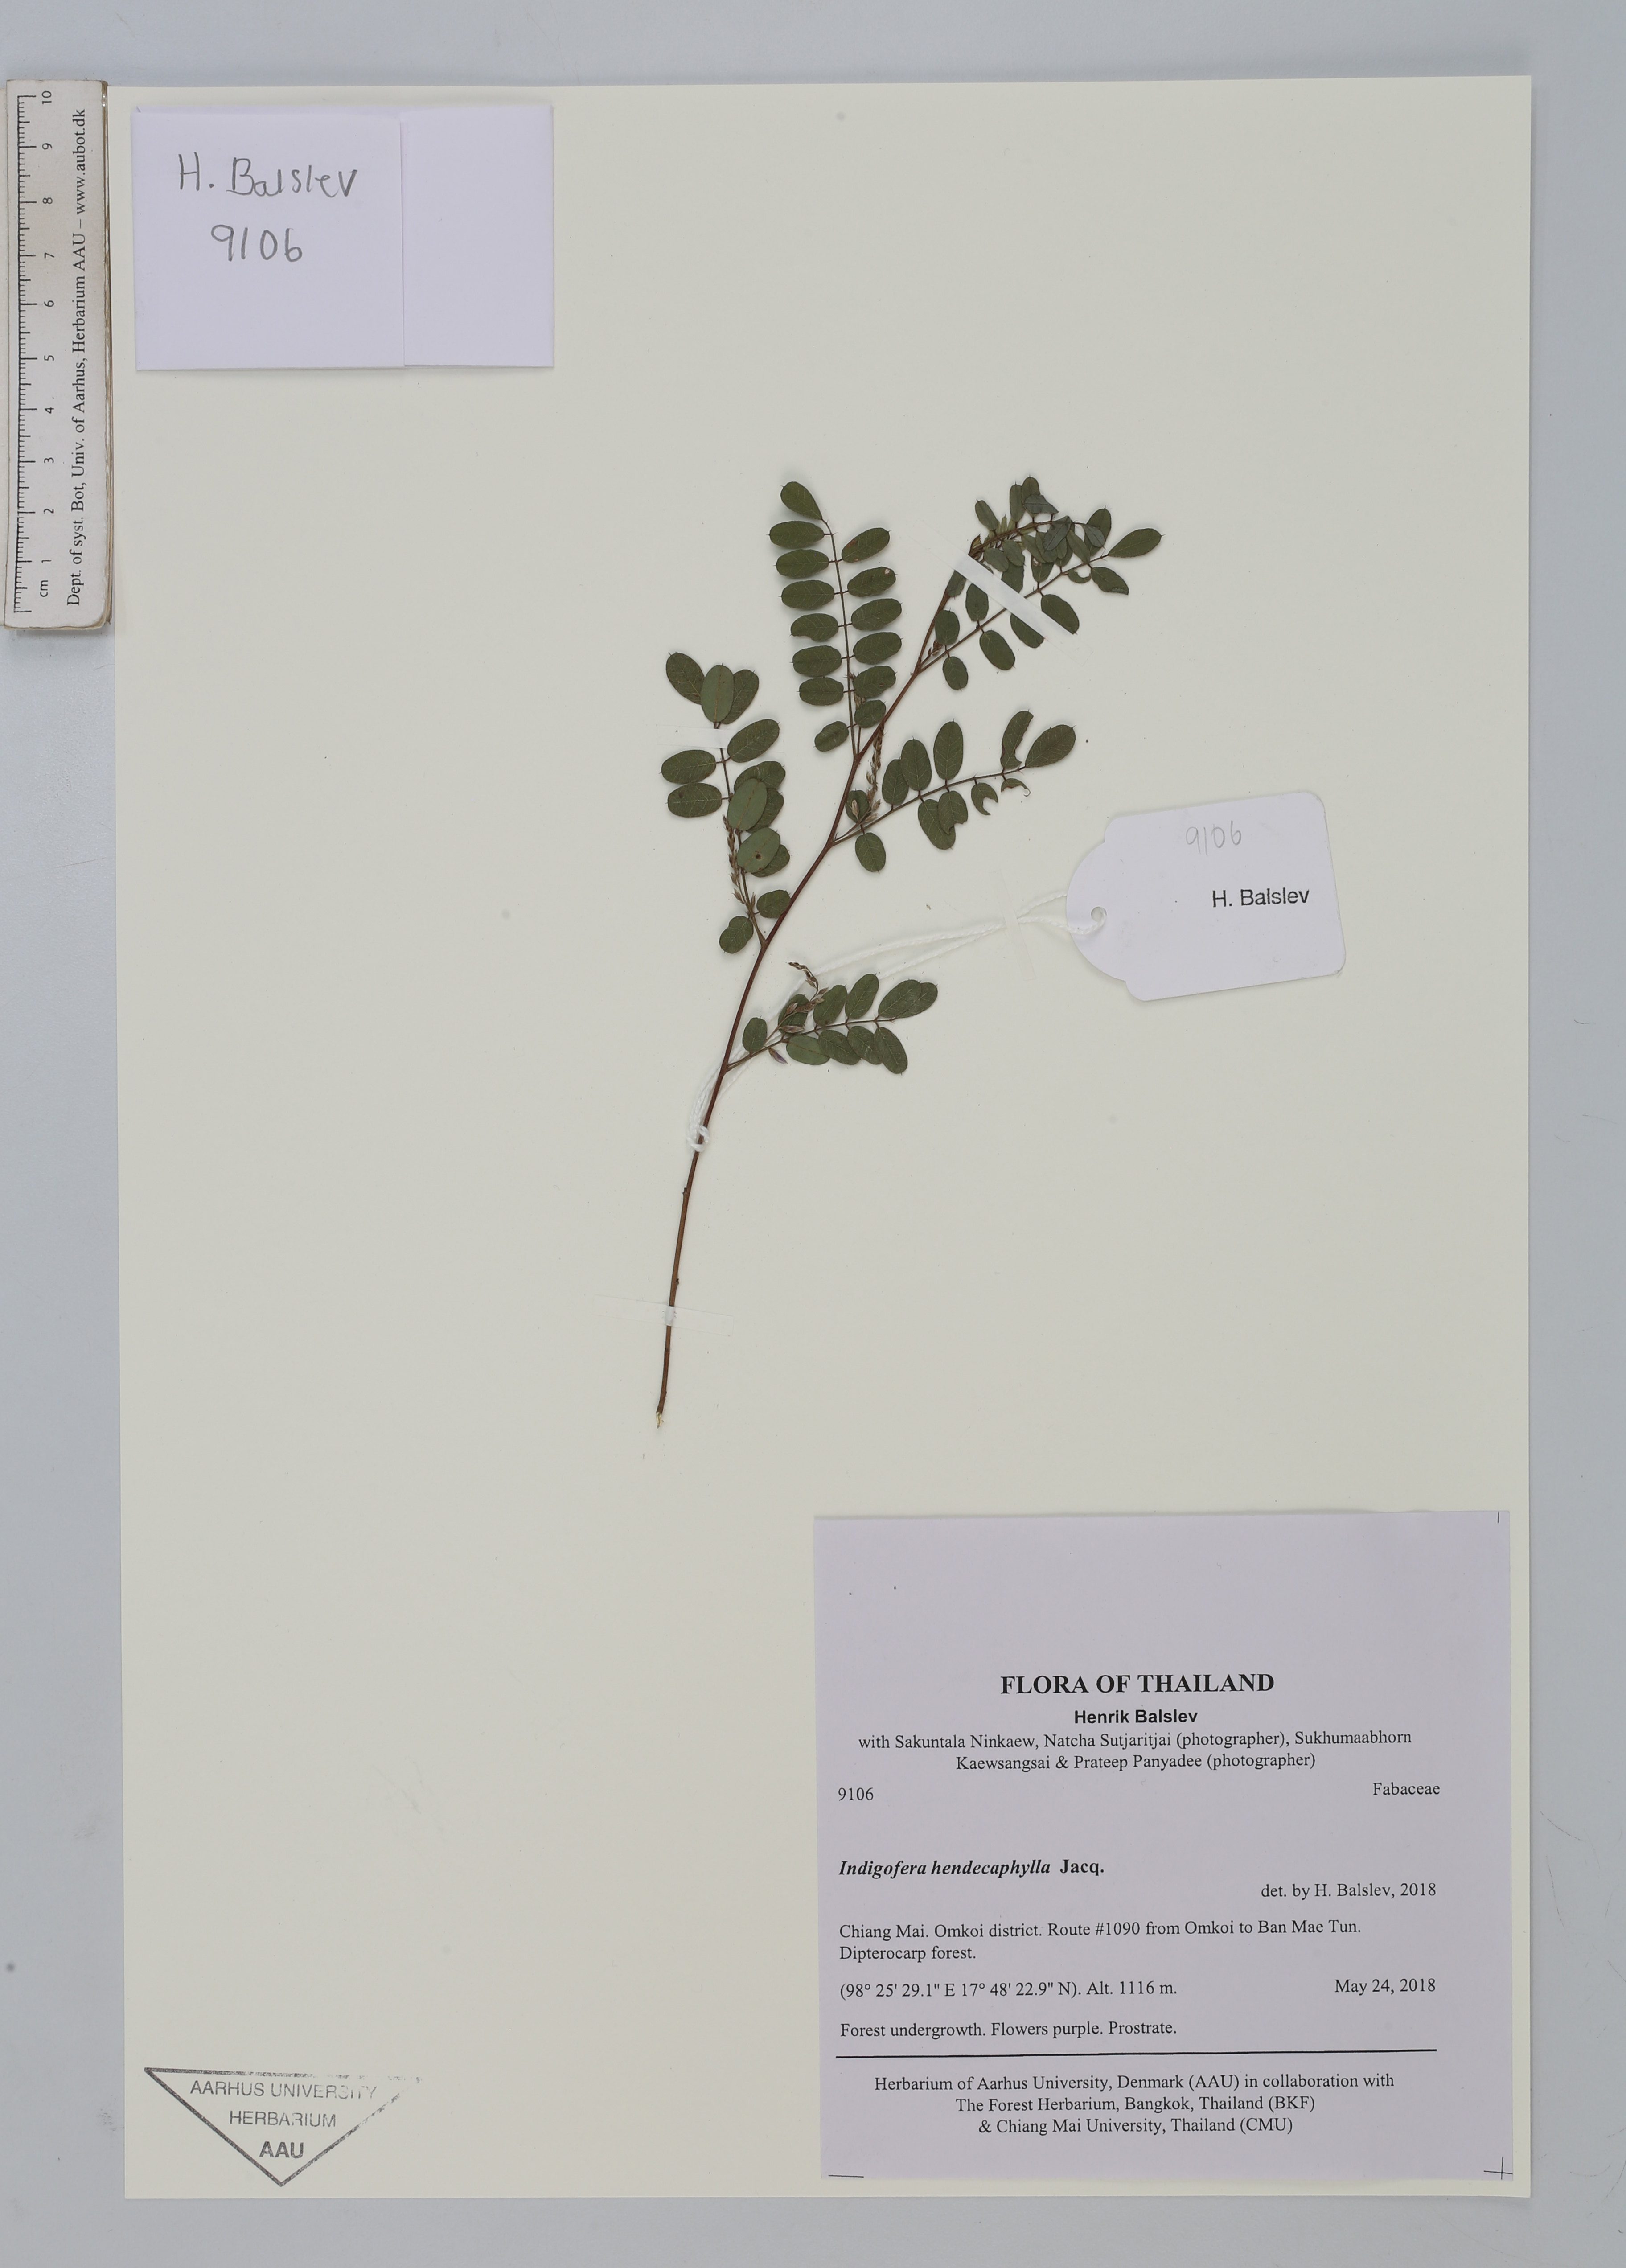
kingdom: Plantae
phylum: Tracheophyta
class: Magnoliopsida
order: Fabales
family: Fabaceae
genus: Indigofera
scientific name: Indigofera hendecaphylla
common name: Trailing indigo
